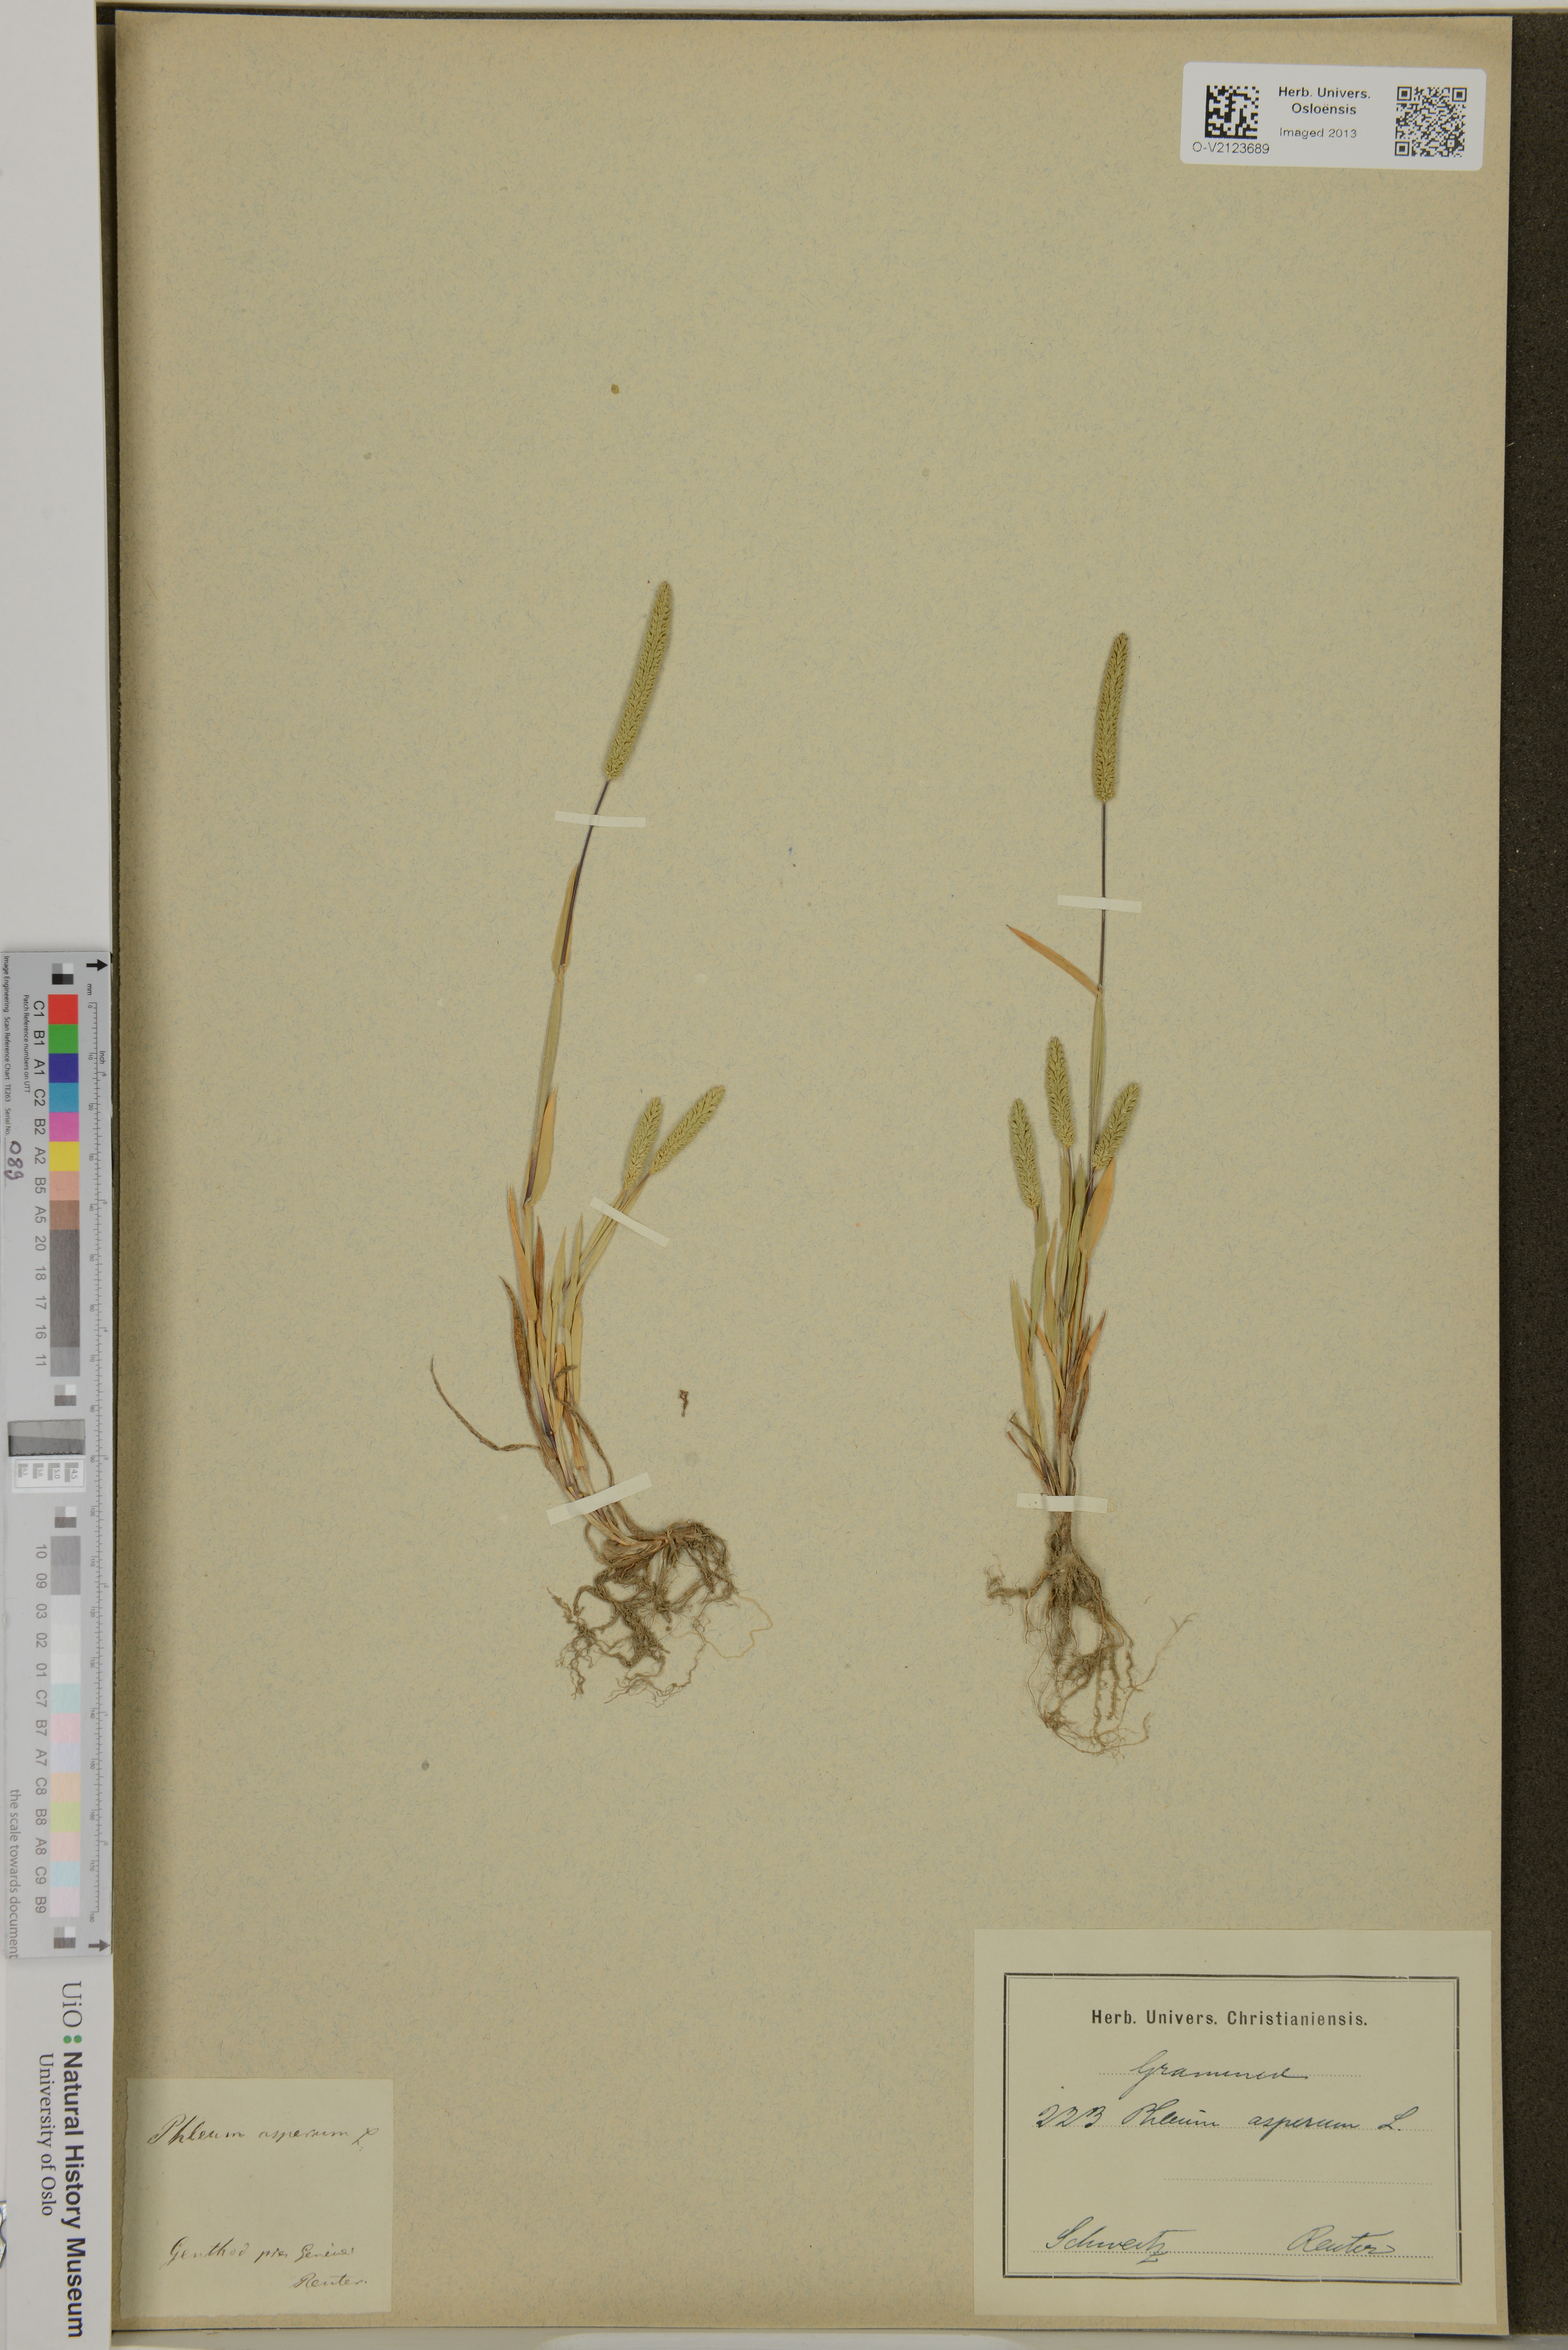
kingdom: Plantae
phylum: Tracheophyta
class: Liliopsida
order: Poales
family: Poaceae
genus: Phleum
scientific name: Phleum paniculatum
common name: British timothy
